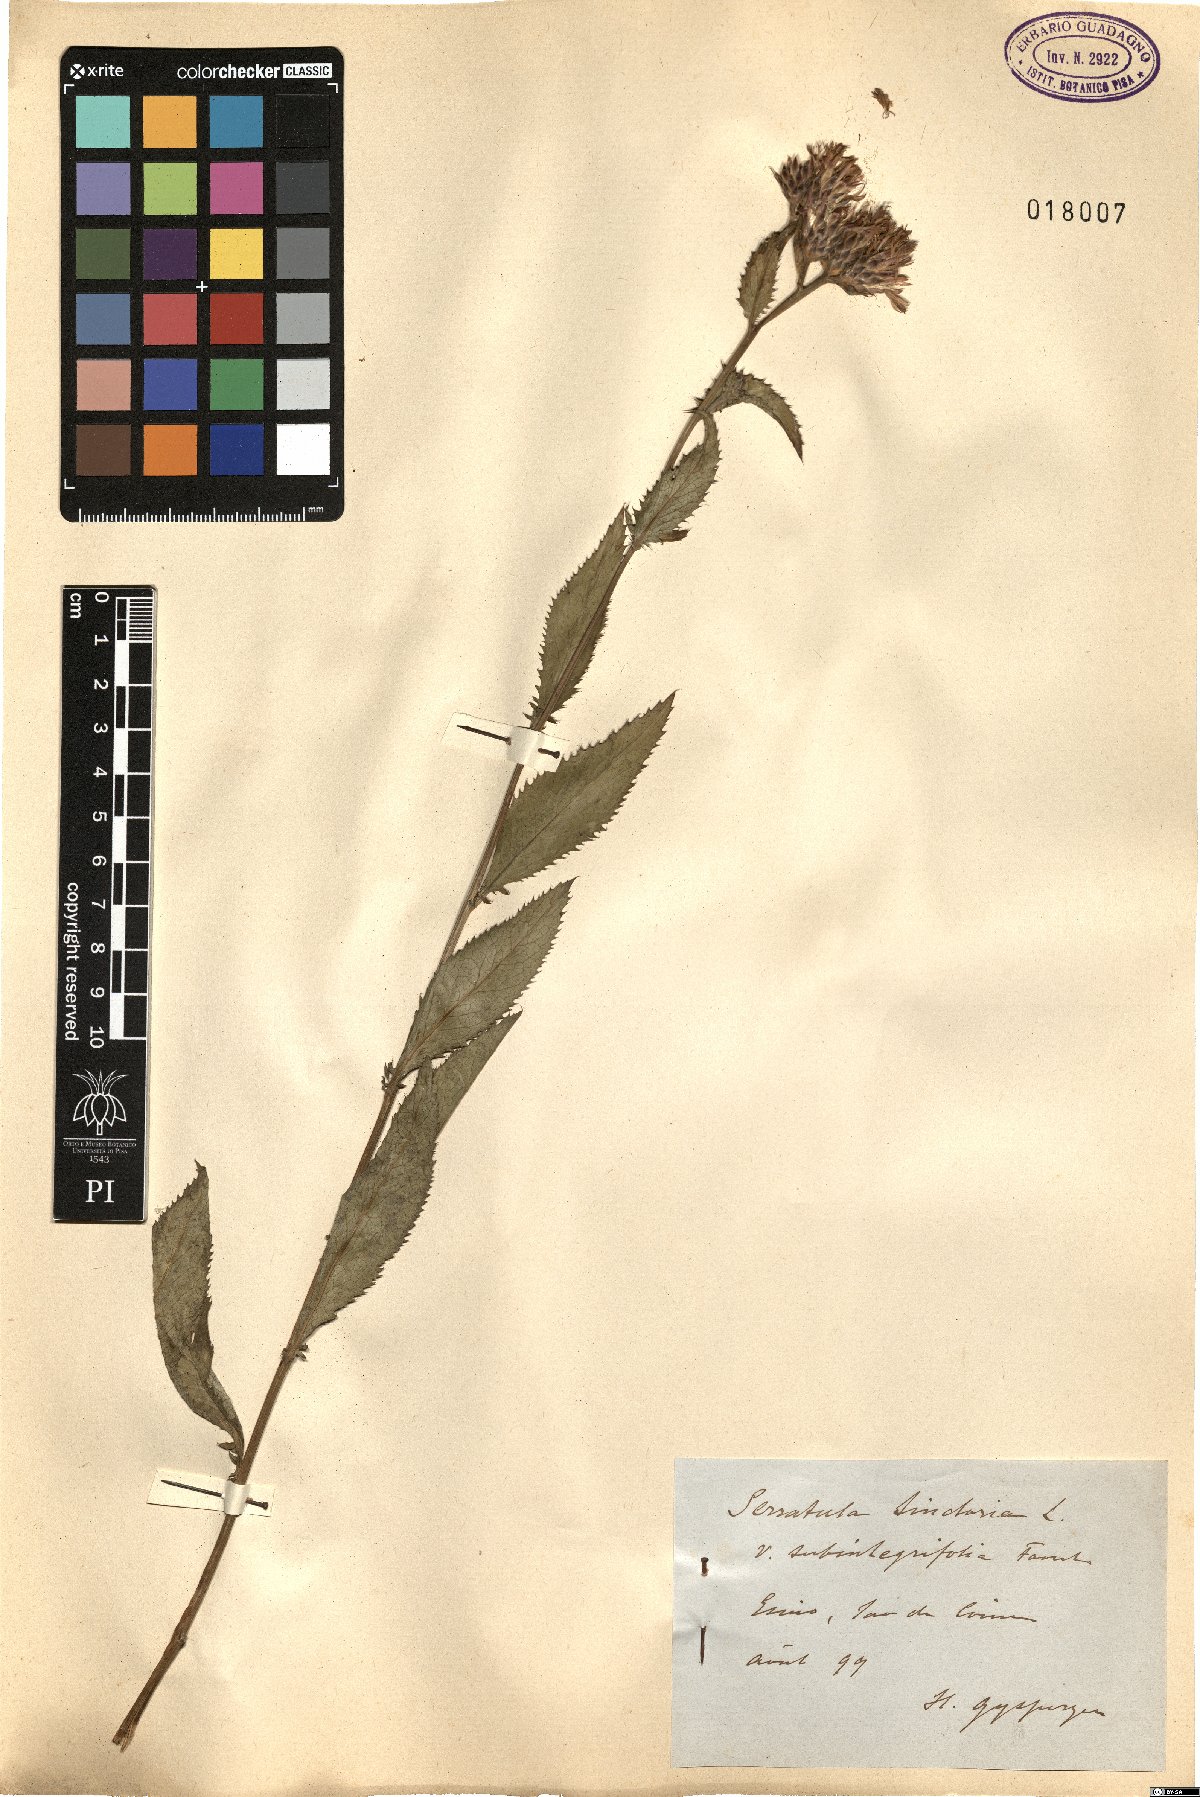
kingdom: Plantae
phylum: Tracheophyta
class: Magnoliopsida
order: Asterales
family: Asteraceae
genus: Serratula
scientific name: Serratula tinctoria
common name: Saw-wort
